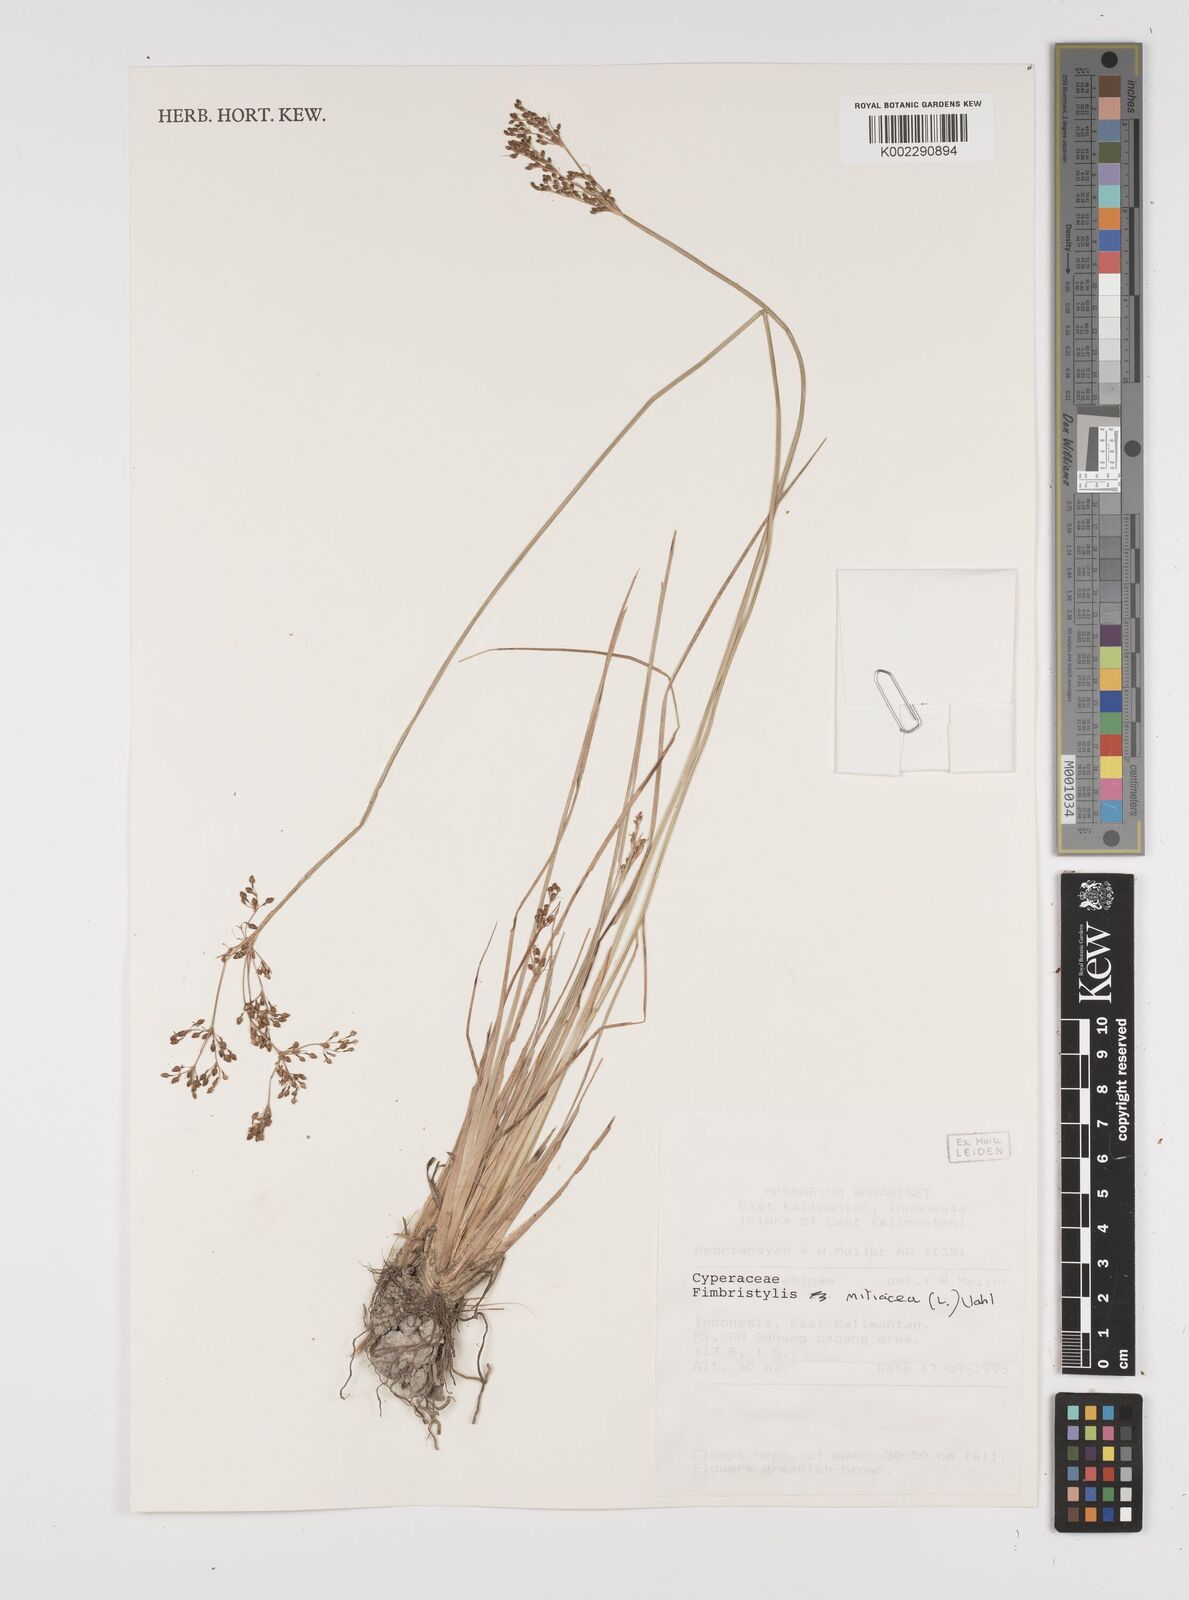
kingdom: Plantae
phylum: Tracheophyta
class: Liliopsida
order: Poales
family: Cyperaceae
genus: Fimbristylis
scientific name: Fimbristylis quinquangularis
